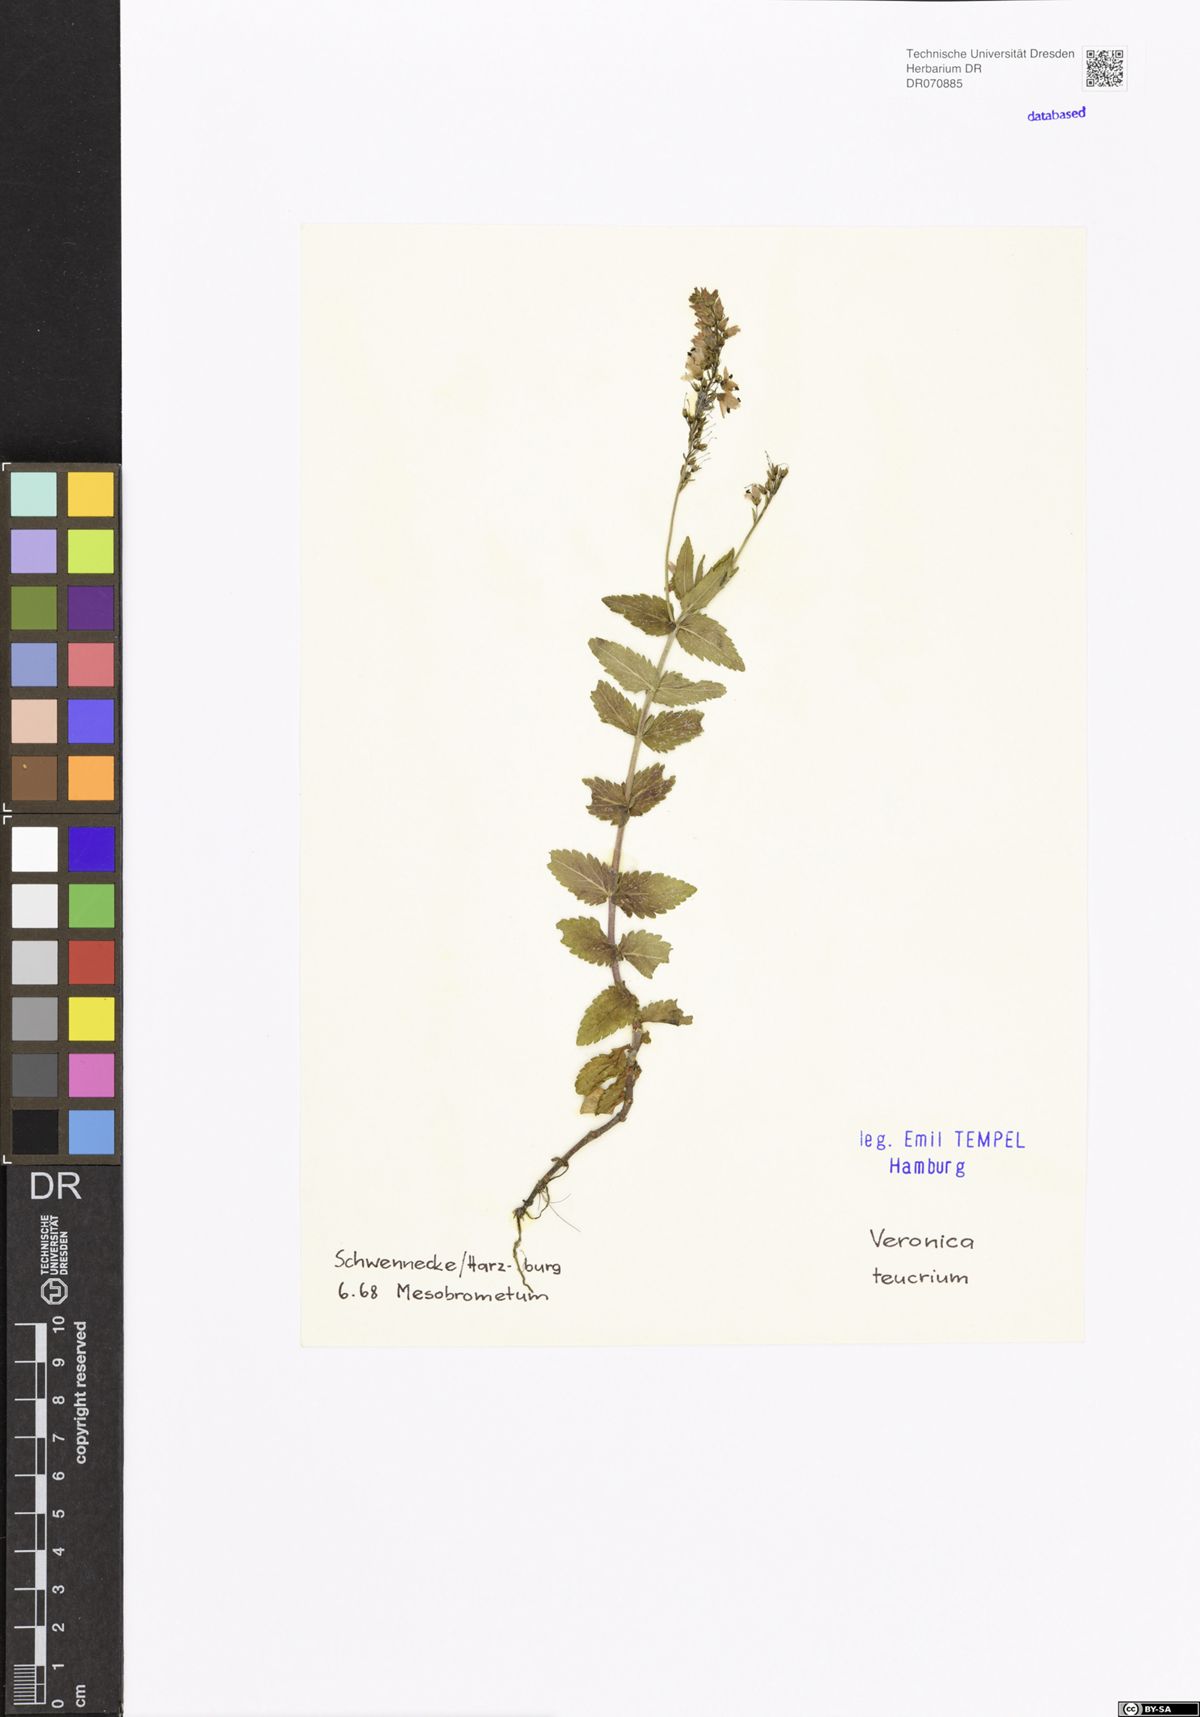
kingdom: Plantae
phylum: Tracheophyta
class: Magnoliopsida
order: Lamiales
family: Plantaginaceae
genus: Veronica
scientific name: Veronica teucrium
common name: Large speedwell
